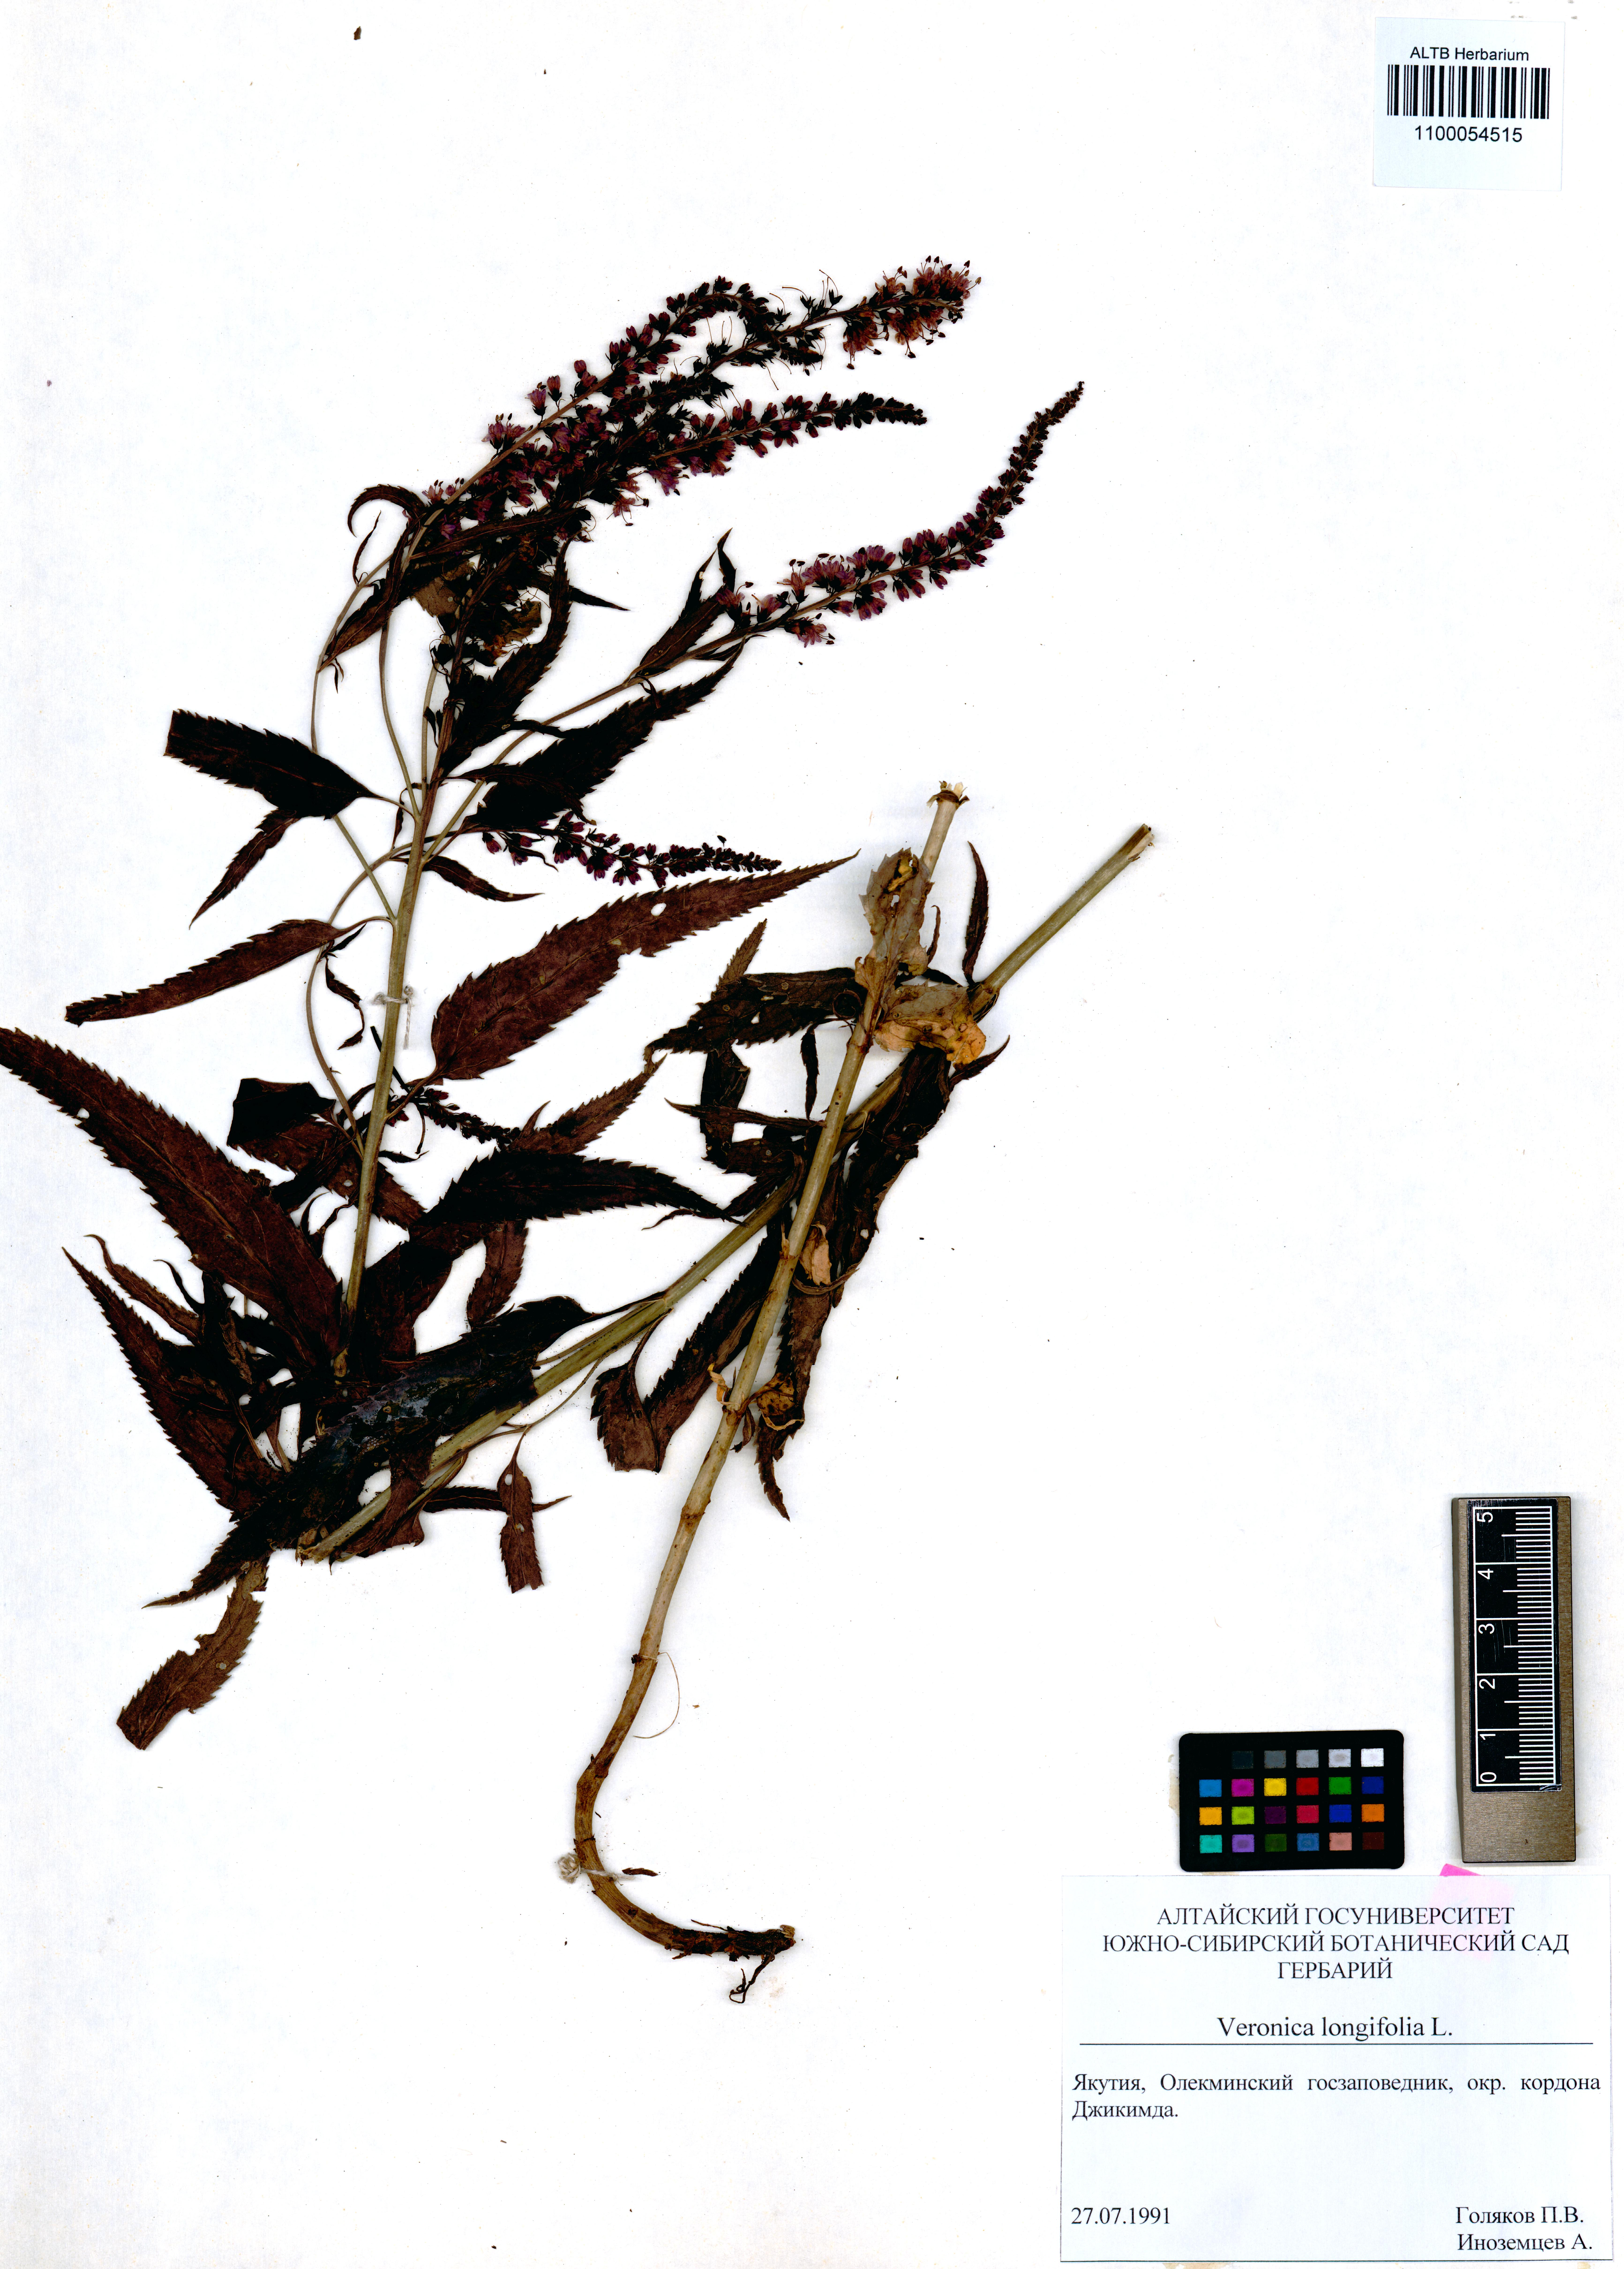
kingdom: Plantae
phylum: Tracheophyta
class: Magnoliopsida
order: Lamiales
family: Plantaginaceae
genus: Veronica
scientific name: Veronica longifolia
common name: Garden speedwell
